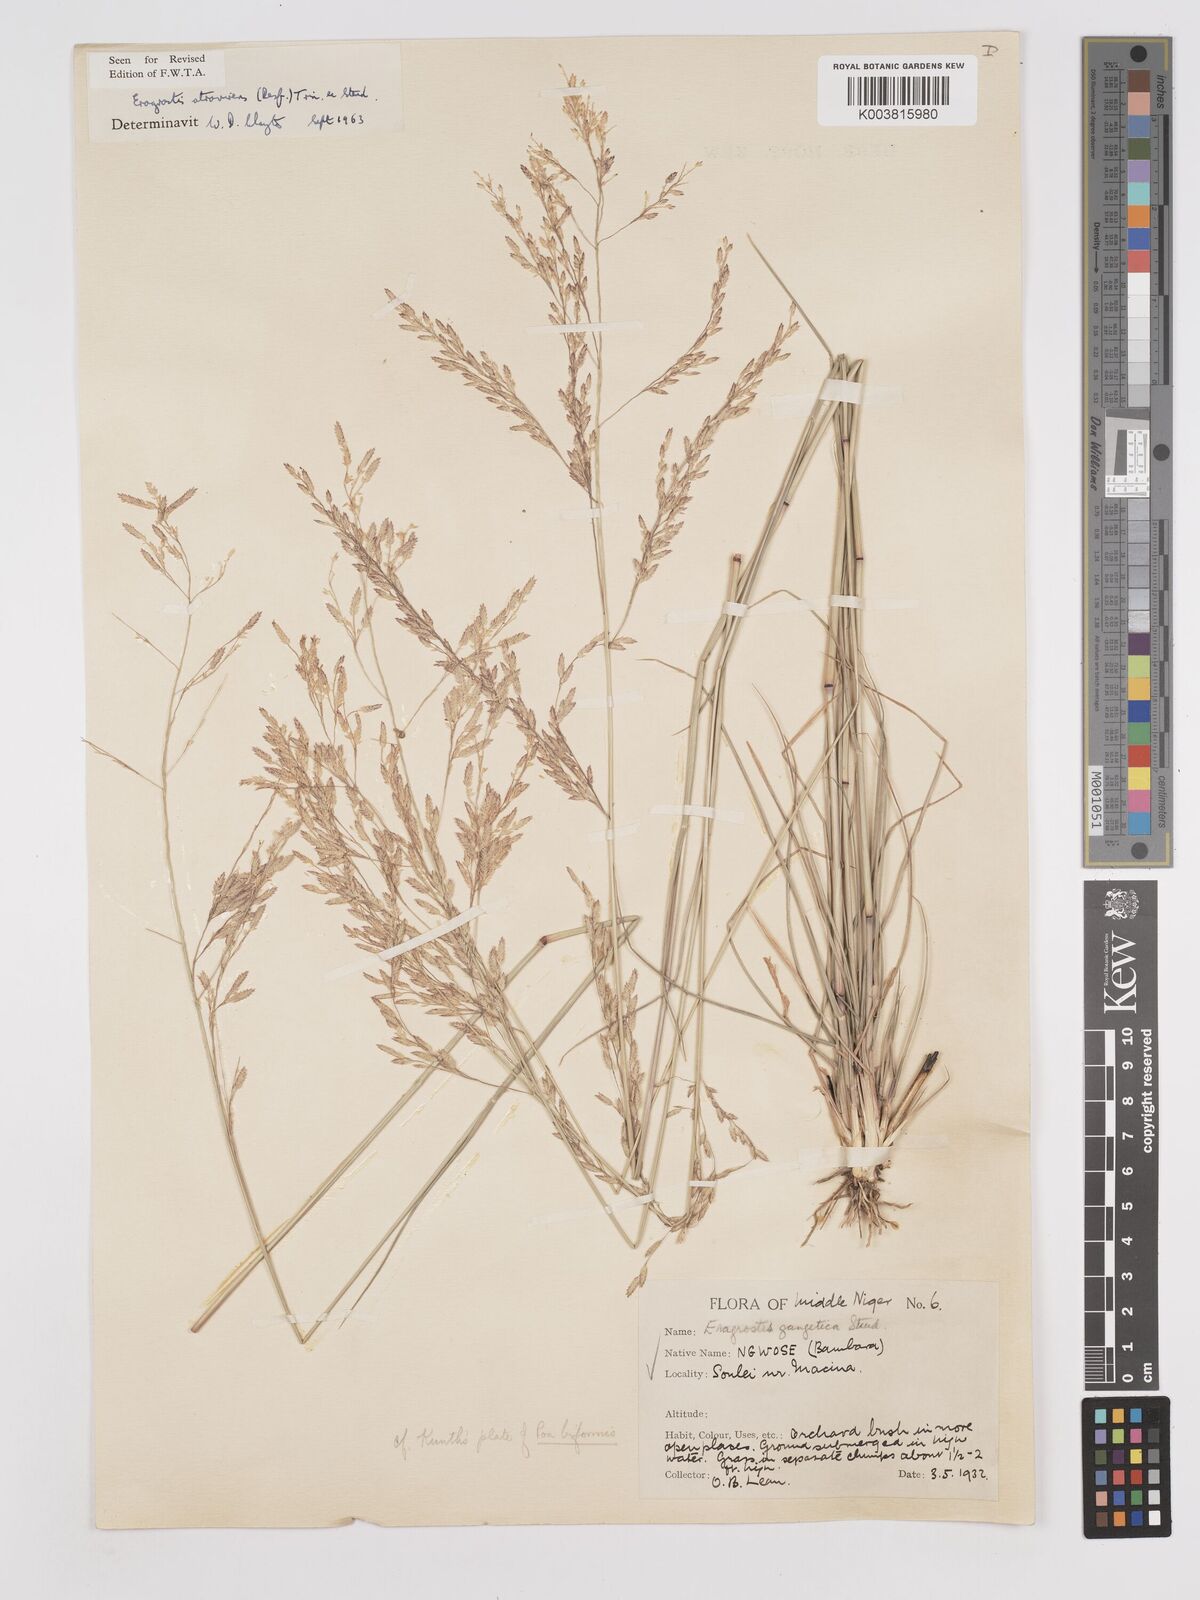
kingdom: Plantae
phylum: Tracheophyta
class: Liliopsida
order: Poales
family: Poaceae
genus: Eragrostis
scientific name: Eragrostis atrovirens
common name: Thalia lovegrass
